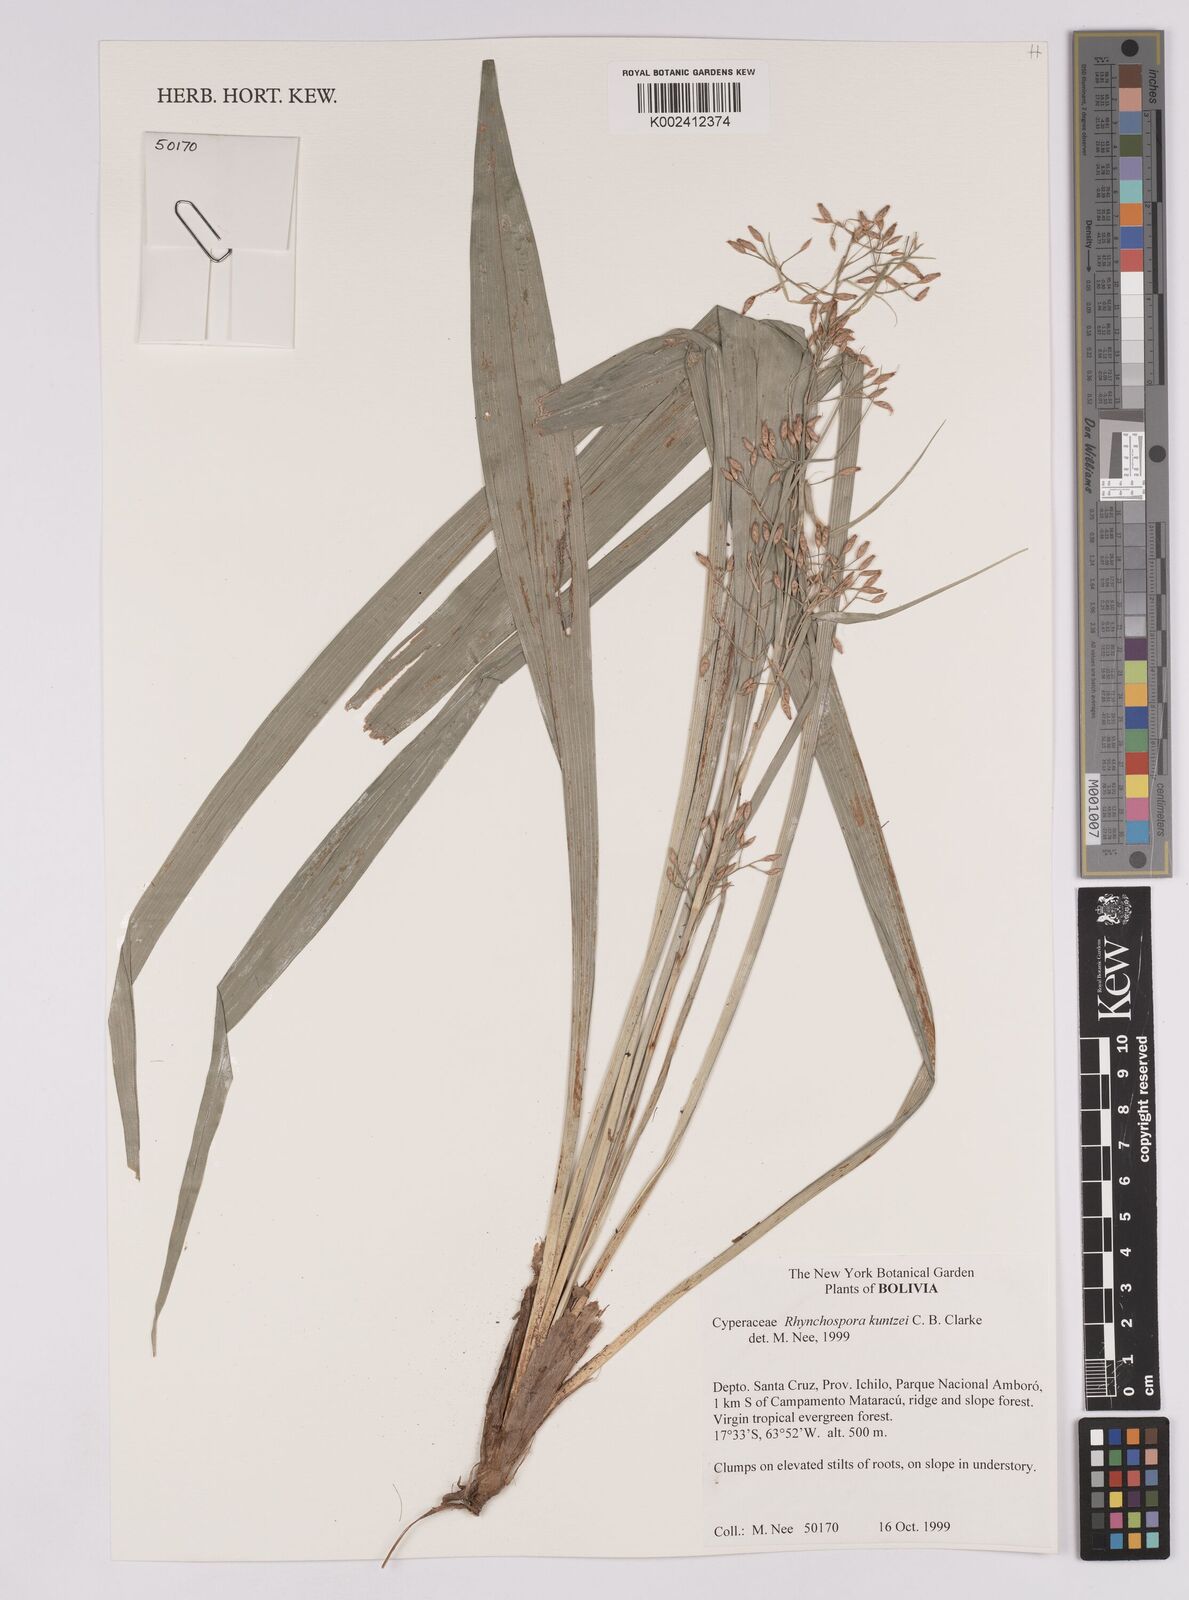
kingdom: Plantae
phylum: Tracheophyta
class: Liliopsida
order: Poales
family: Cyperaceae
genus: Rhynchospora
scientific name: Rhynchospora umbraticola
